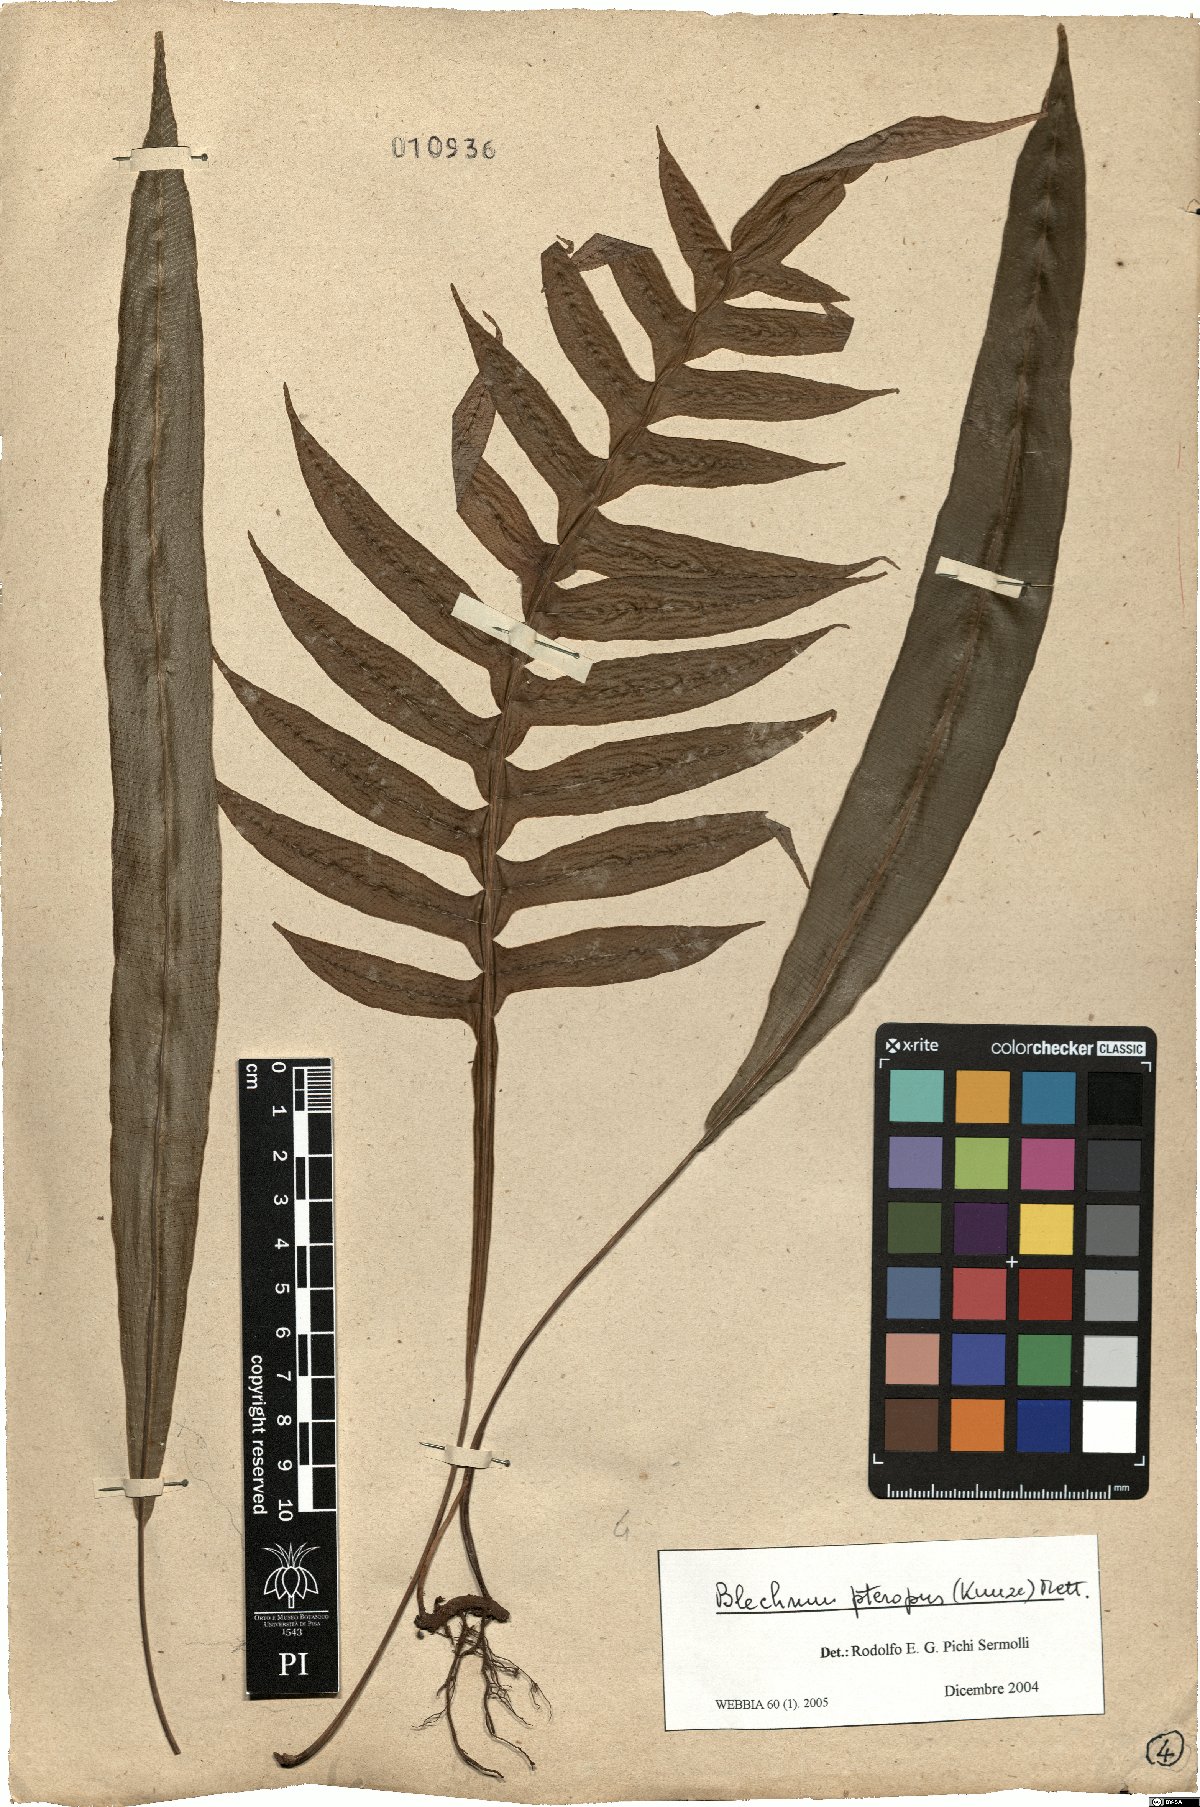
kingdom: Plantae
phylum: Tracheophyta
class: Polypodiopsida
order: Polypodiales
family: Blechnaceae
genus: Lomaridium
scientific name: Lomaridium pteropus
